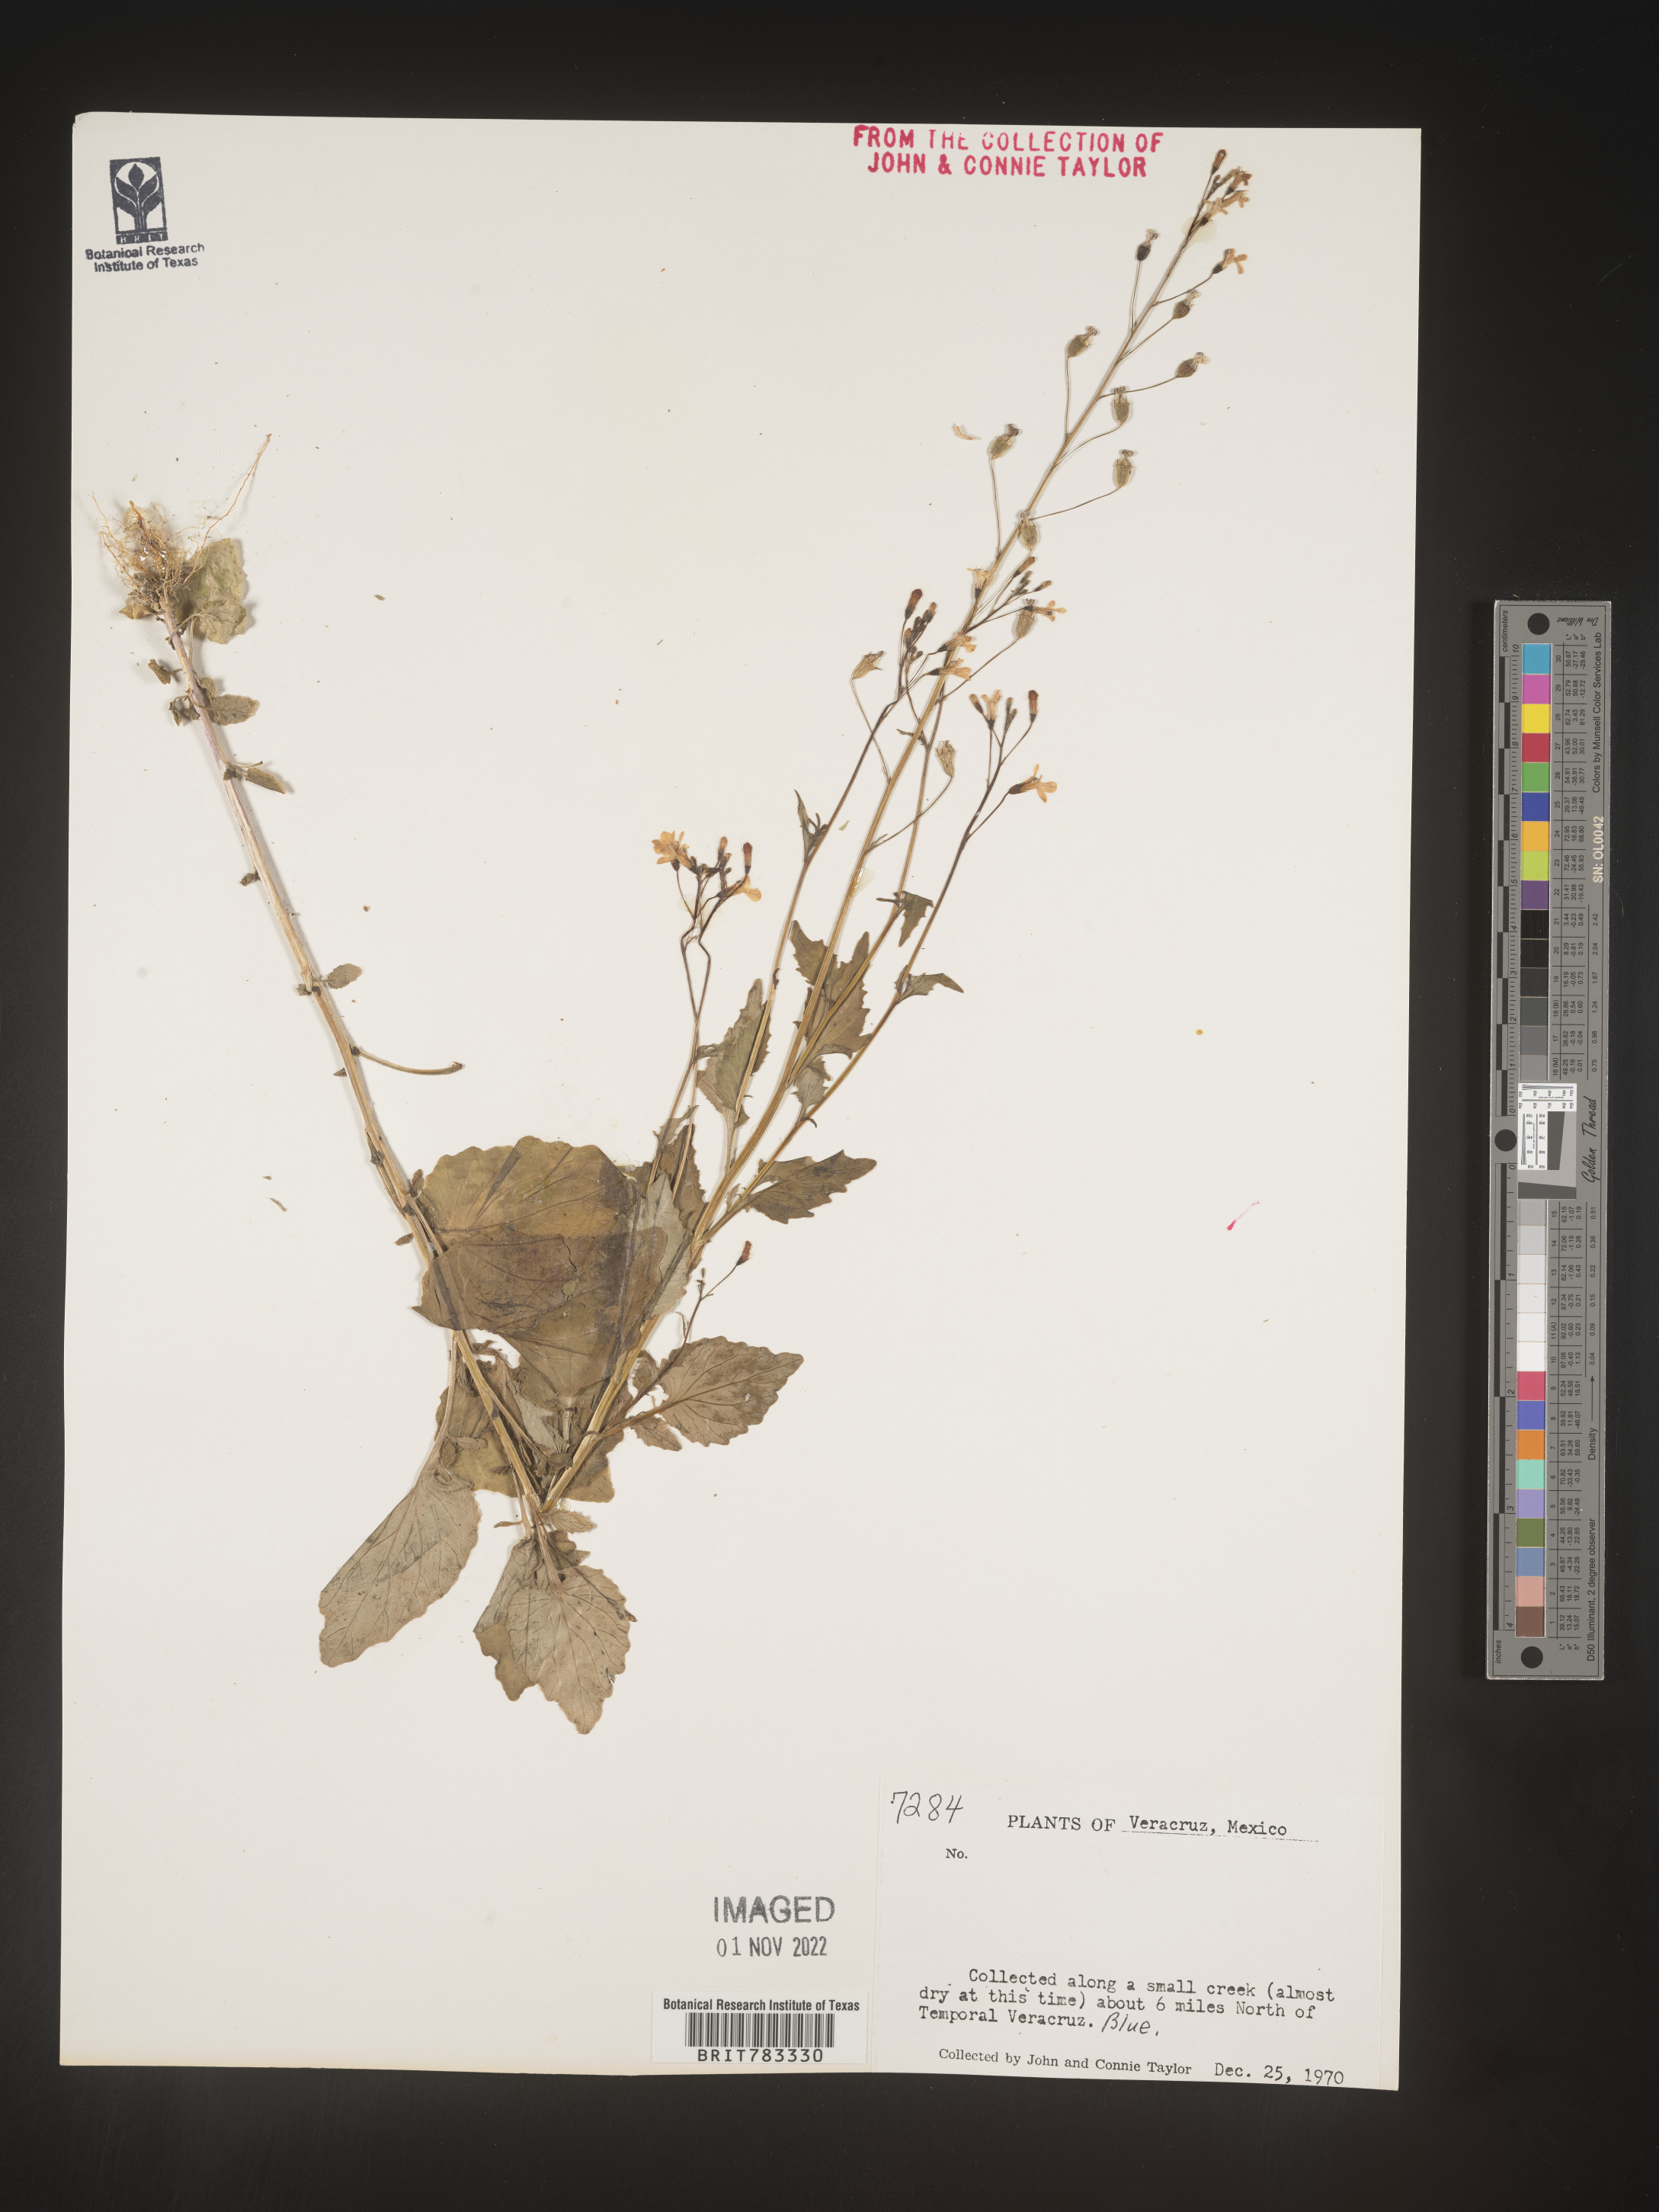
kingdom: Plantae
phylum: Tracheophyta
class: Magnoliopsida
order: Asterales
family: Campanulaceae
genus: Lobelia
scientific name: Lobelia
